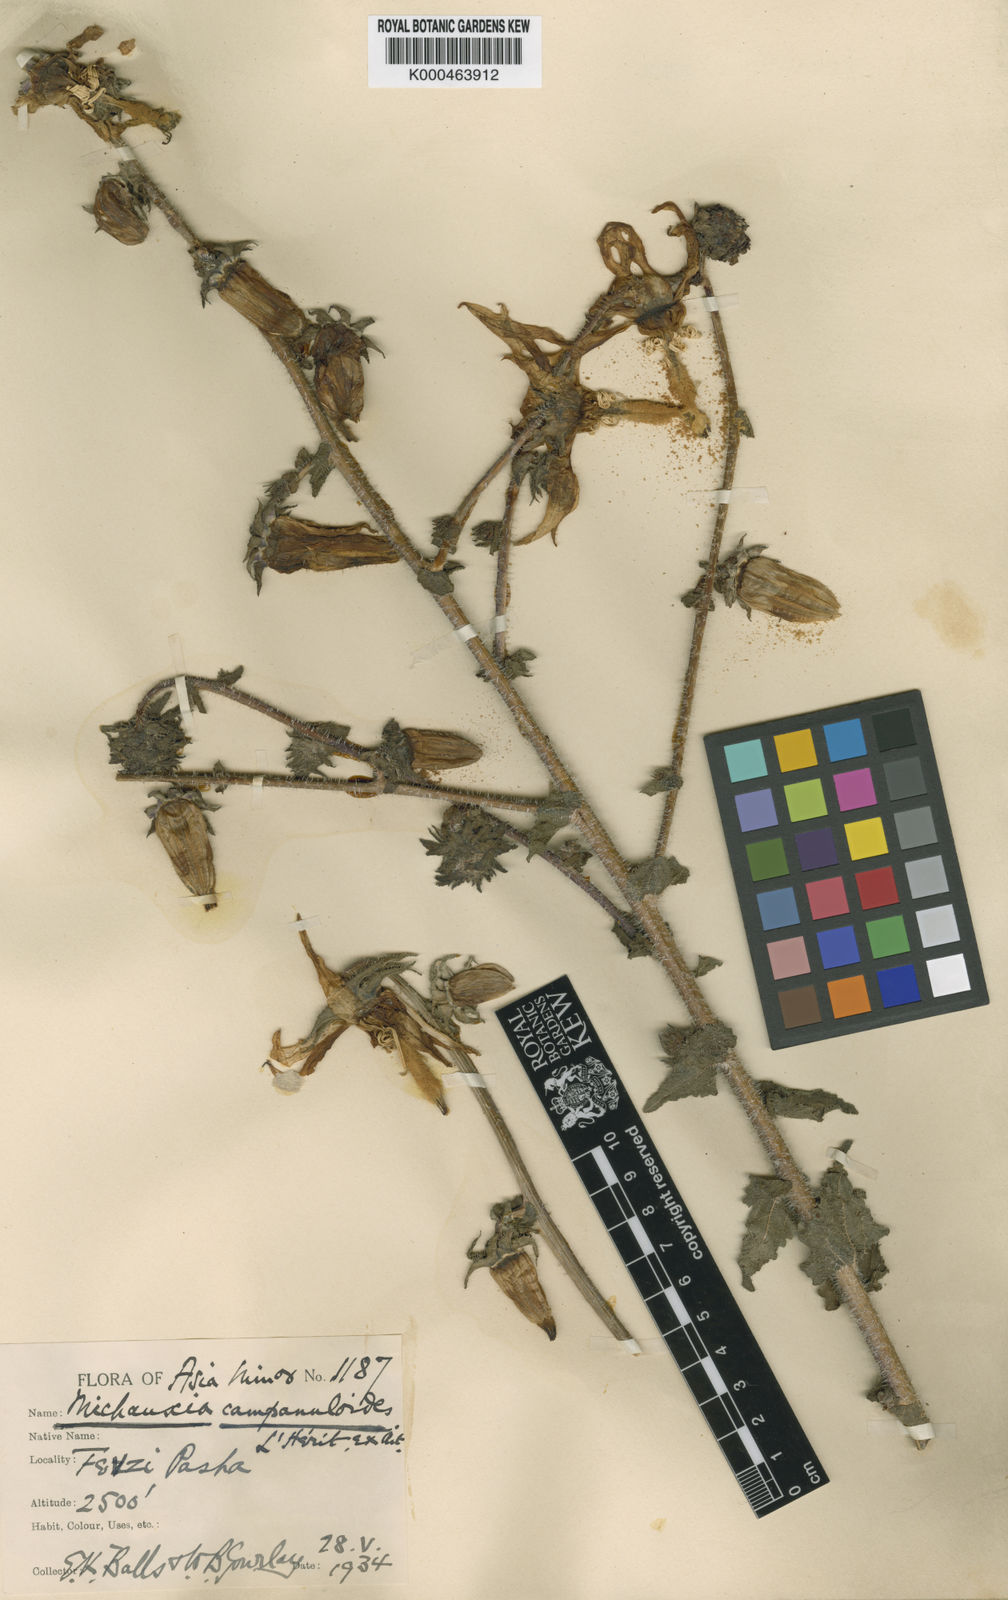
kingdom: Plantae
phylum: Tracheophyta
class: Magnoliopsida
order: Asterales
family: Campanulaceae
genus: Michauxia
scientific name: Michauxia
